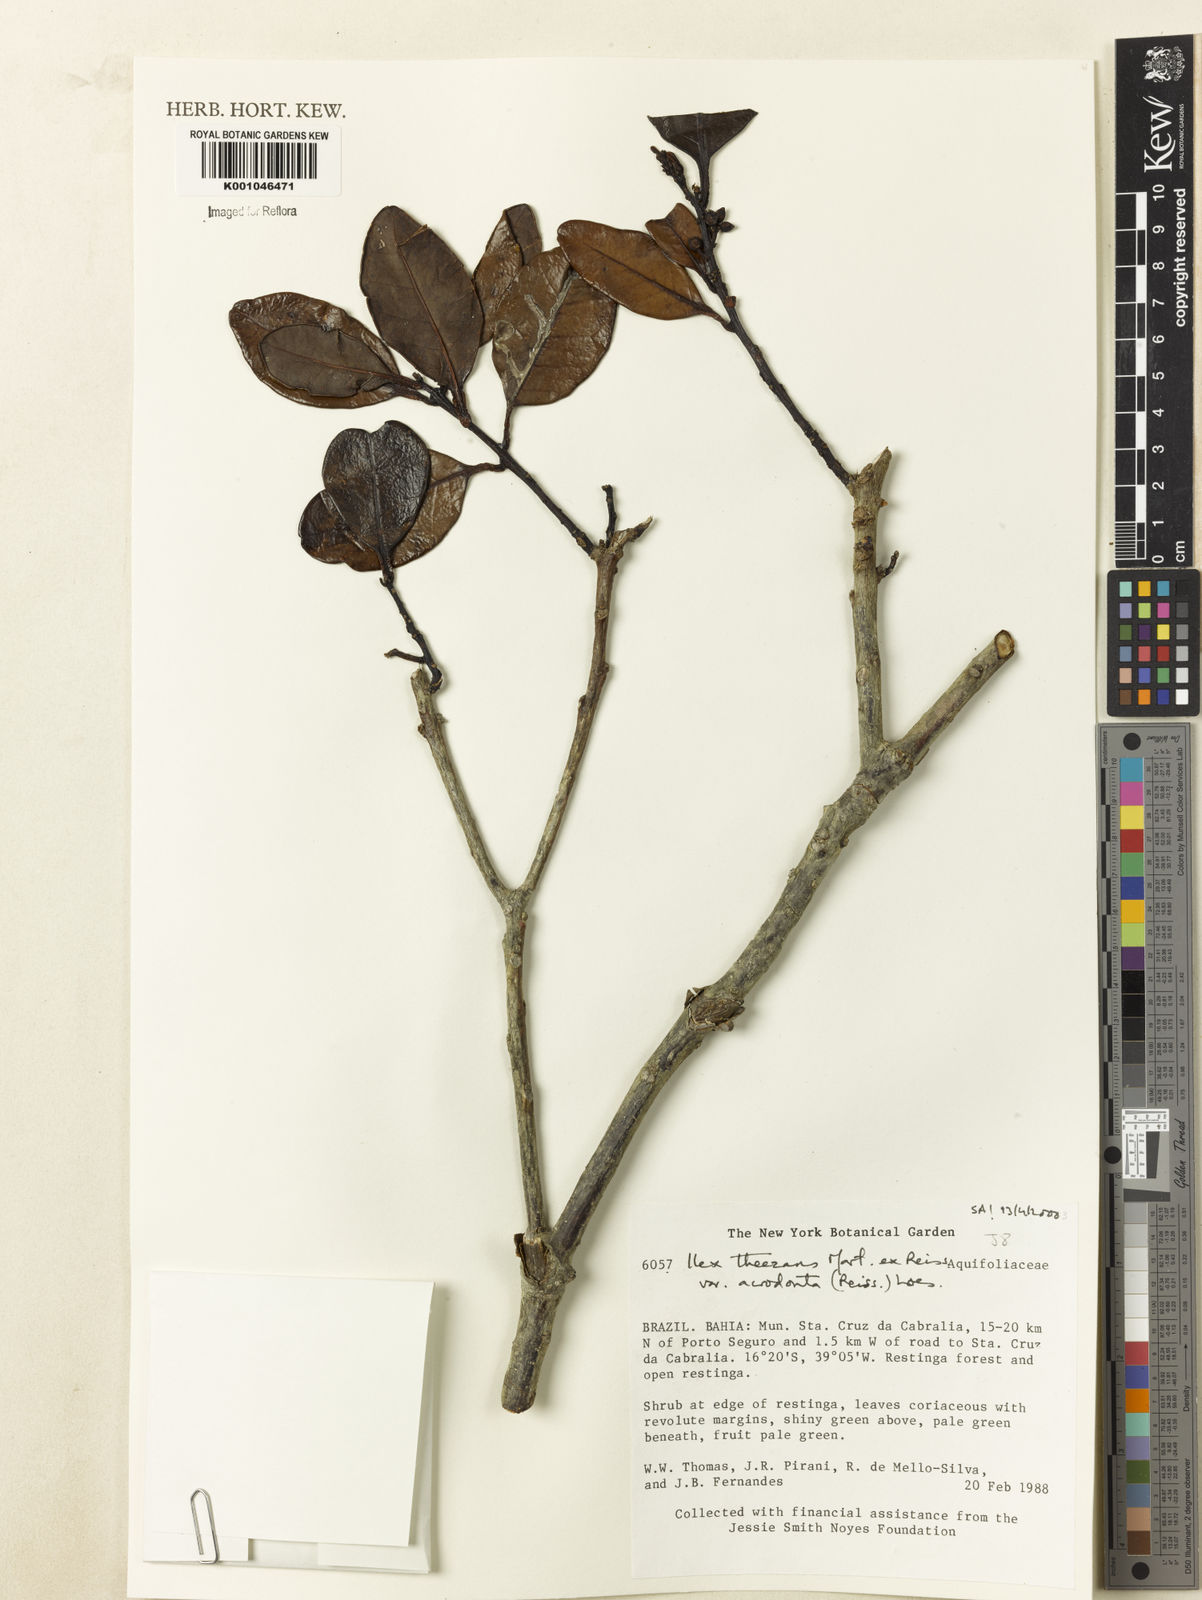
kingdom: Plantae
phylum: Tracheophyta
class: Magnoliopsida
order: Aquifoliales
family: Aquifoliaceae
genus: Ilex
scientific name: Ilex paraguariensis
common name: Paraguay tea
